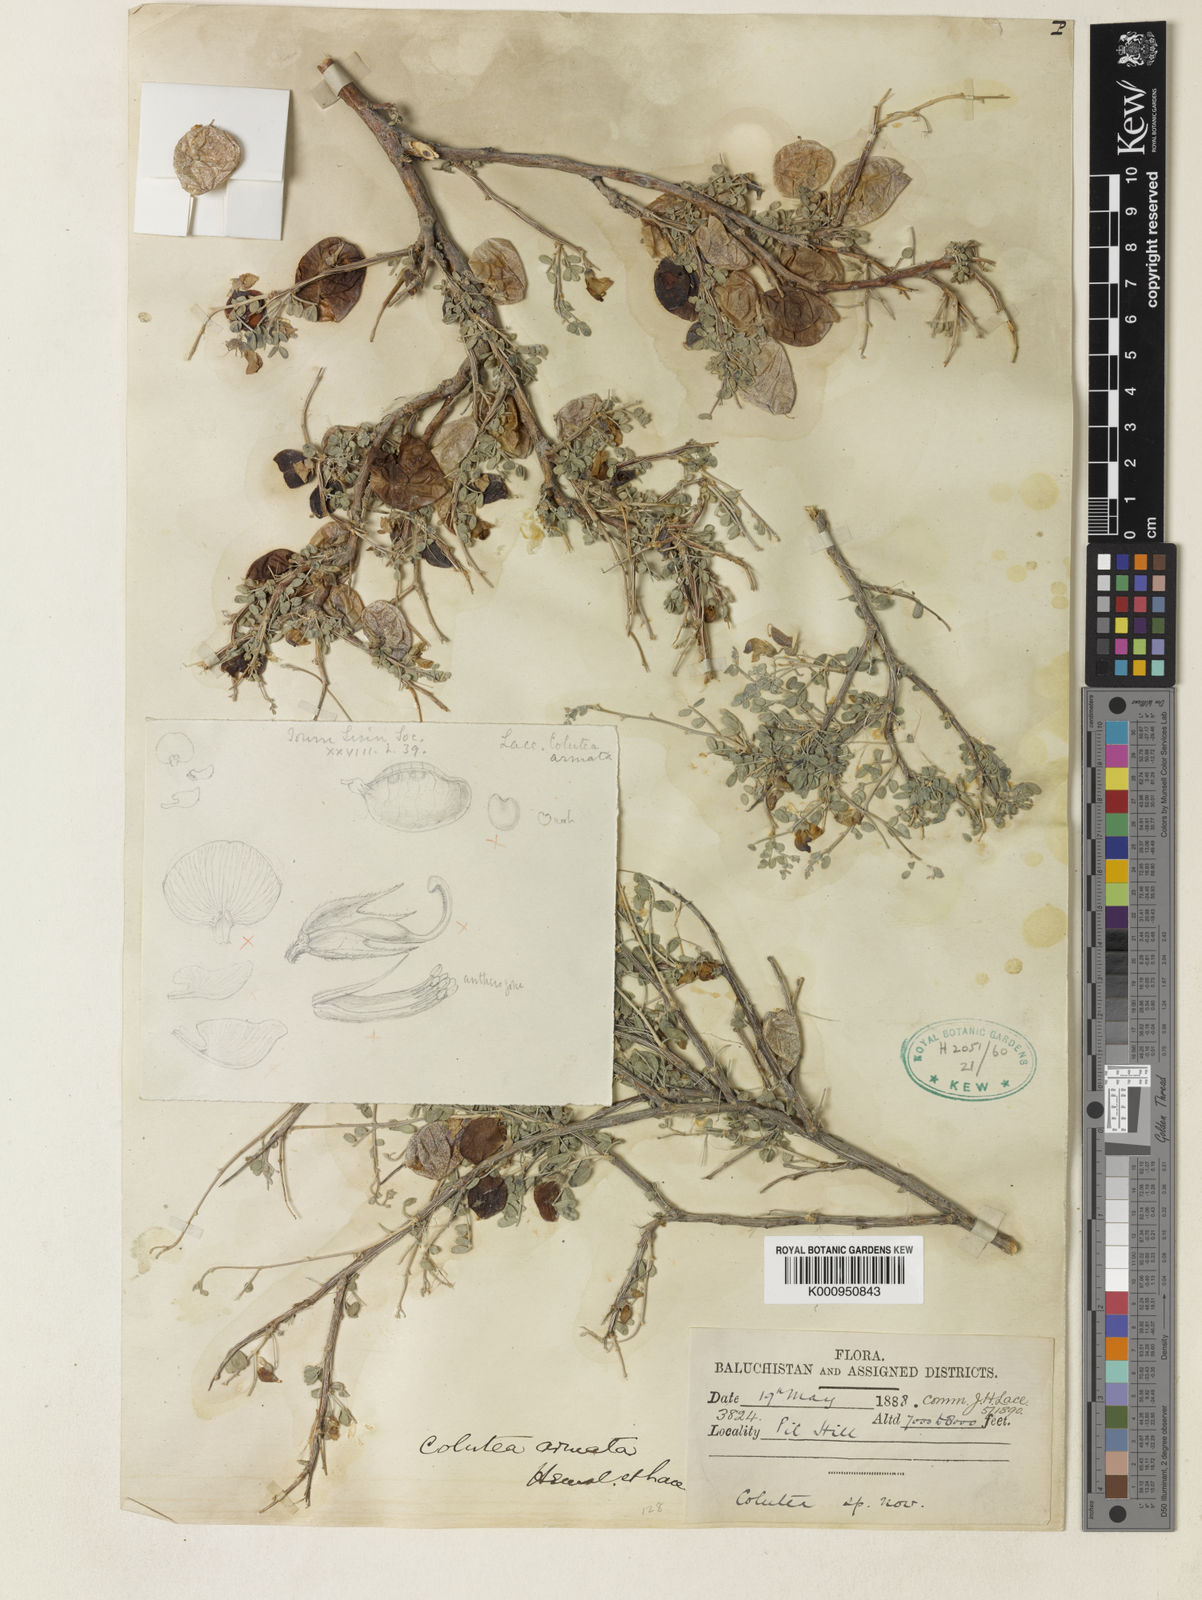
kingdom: Plantae
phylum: Tracheophyta
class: Magnoliopsida
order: Fabales
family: Fabaceae
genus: Colutea
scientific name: Colutea armata
